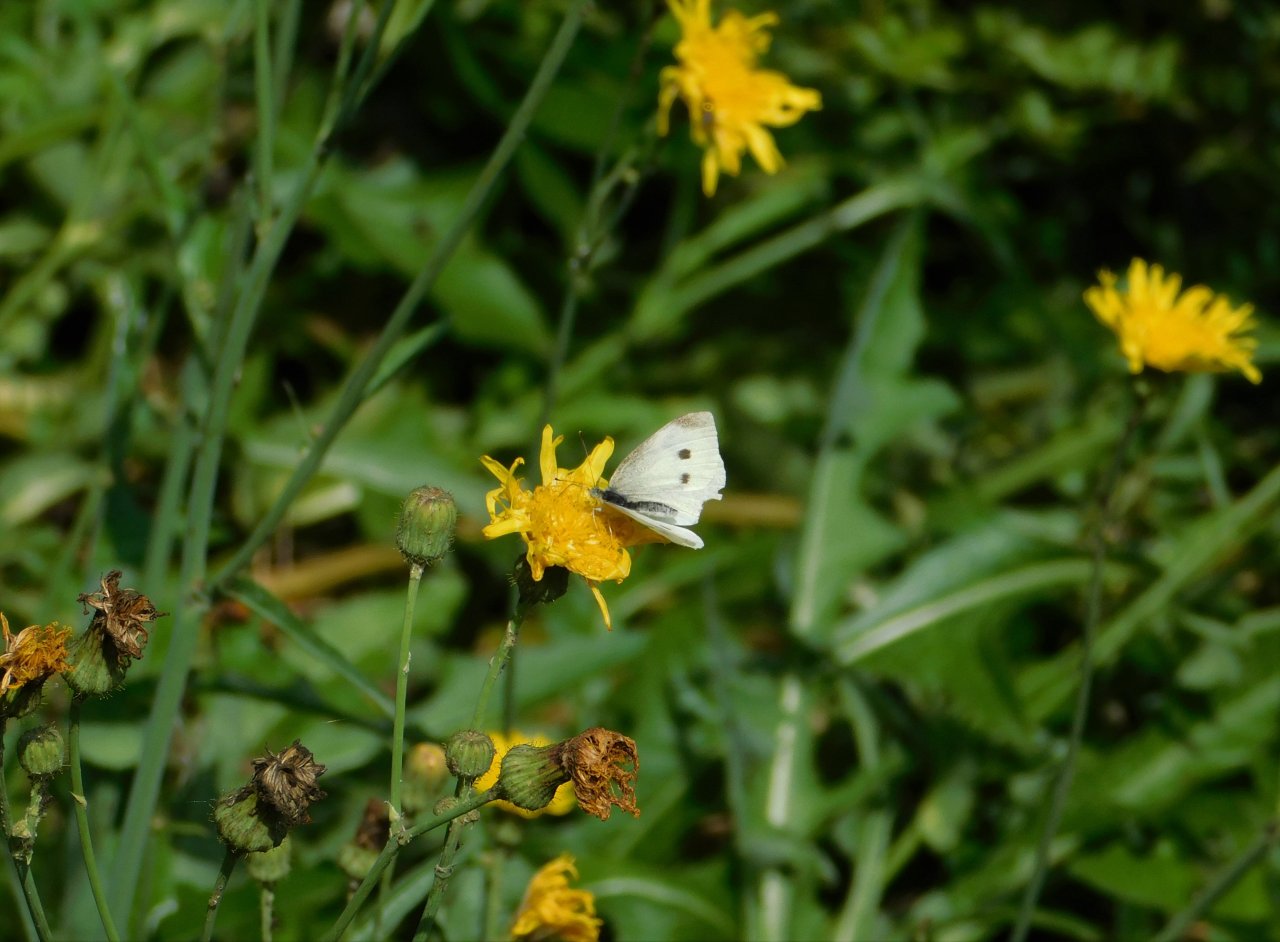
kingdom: Animalia
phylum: Arthropoda
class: Insecta
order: Lepidoptera
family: Pieridae
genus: Pieris
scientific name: Pieris rapae
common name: Cabbage White
